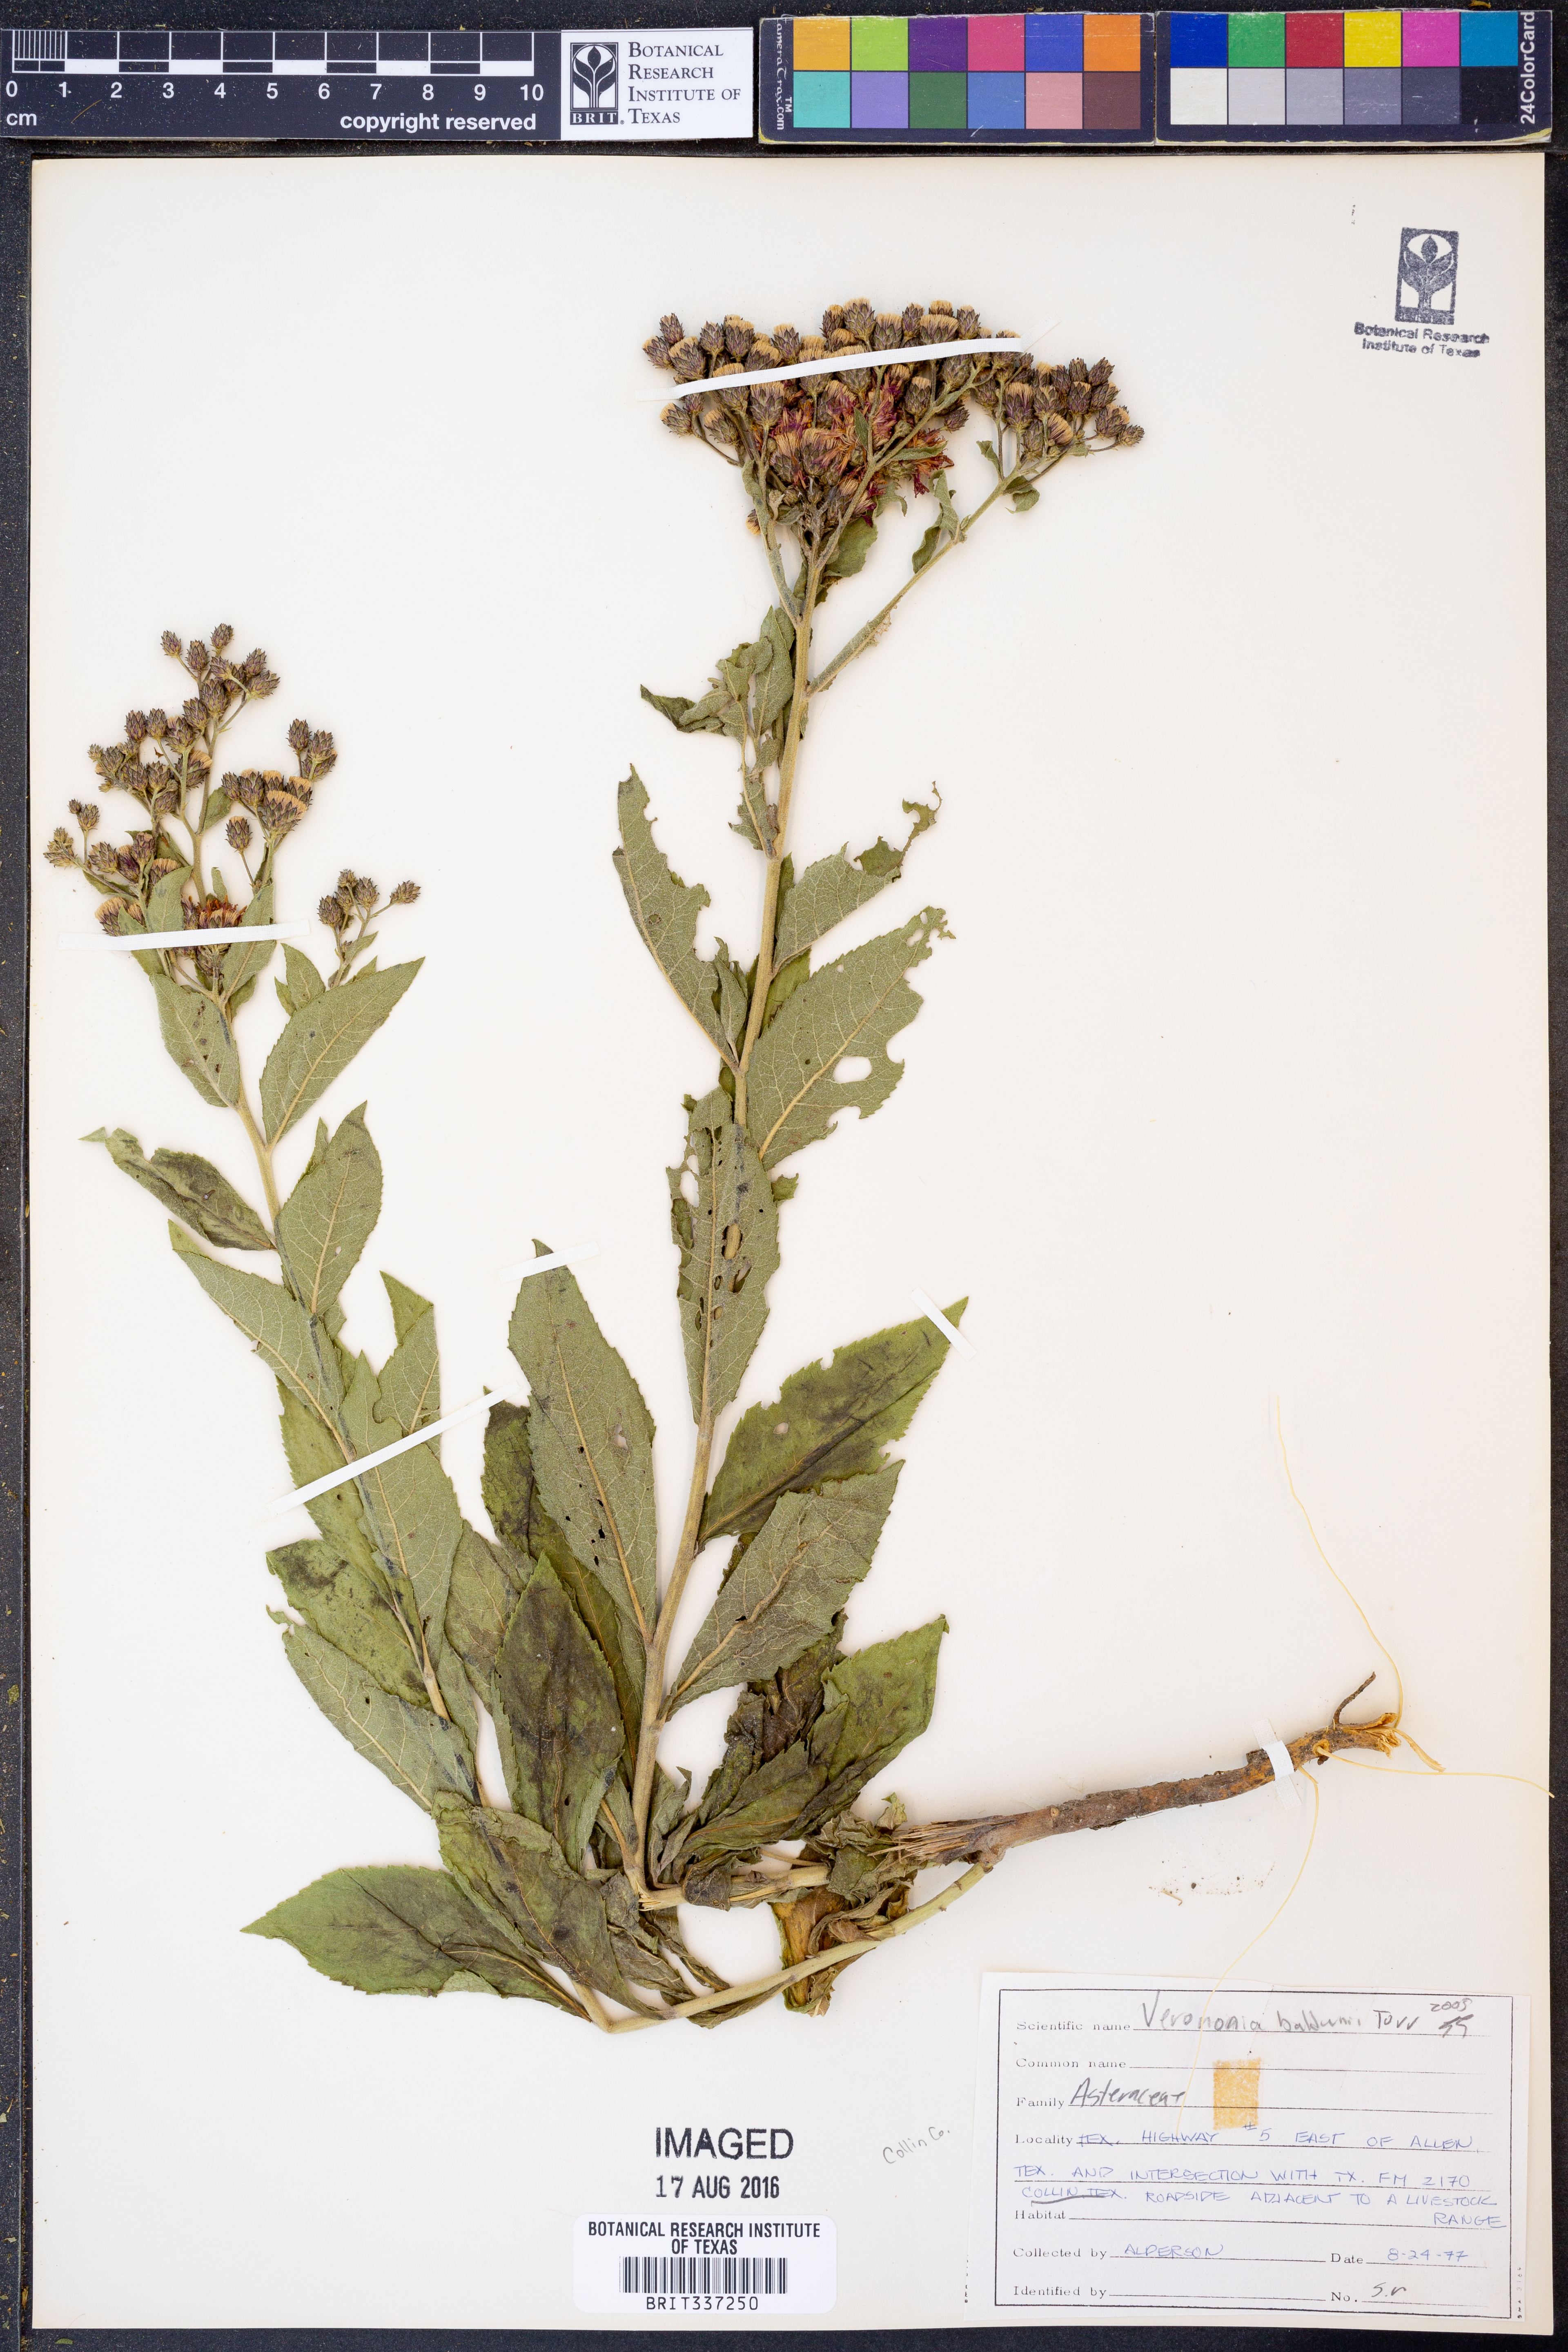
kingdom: Plantae
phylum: Tracheophyta
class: Magnoliopsida
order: Asterales
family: Asteraceae
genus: Vernonia
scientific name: Vernonia baldwinii
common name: Western ironweed
